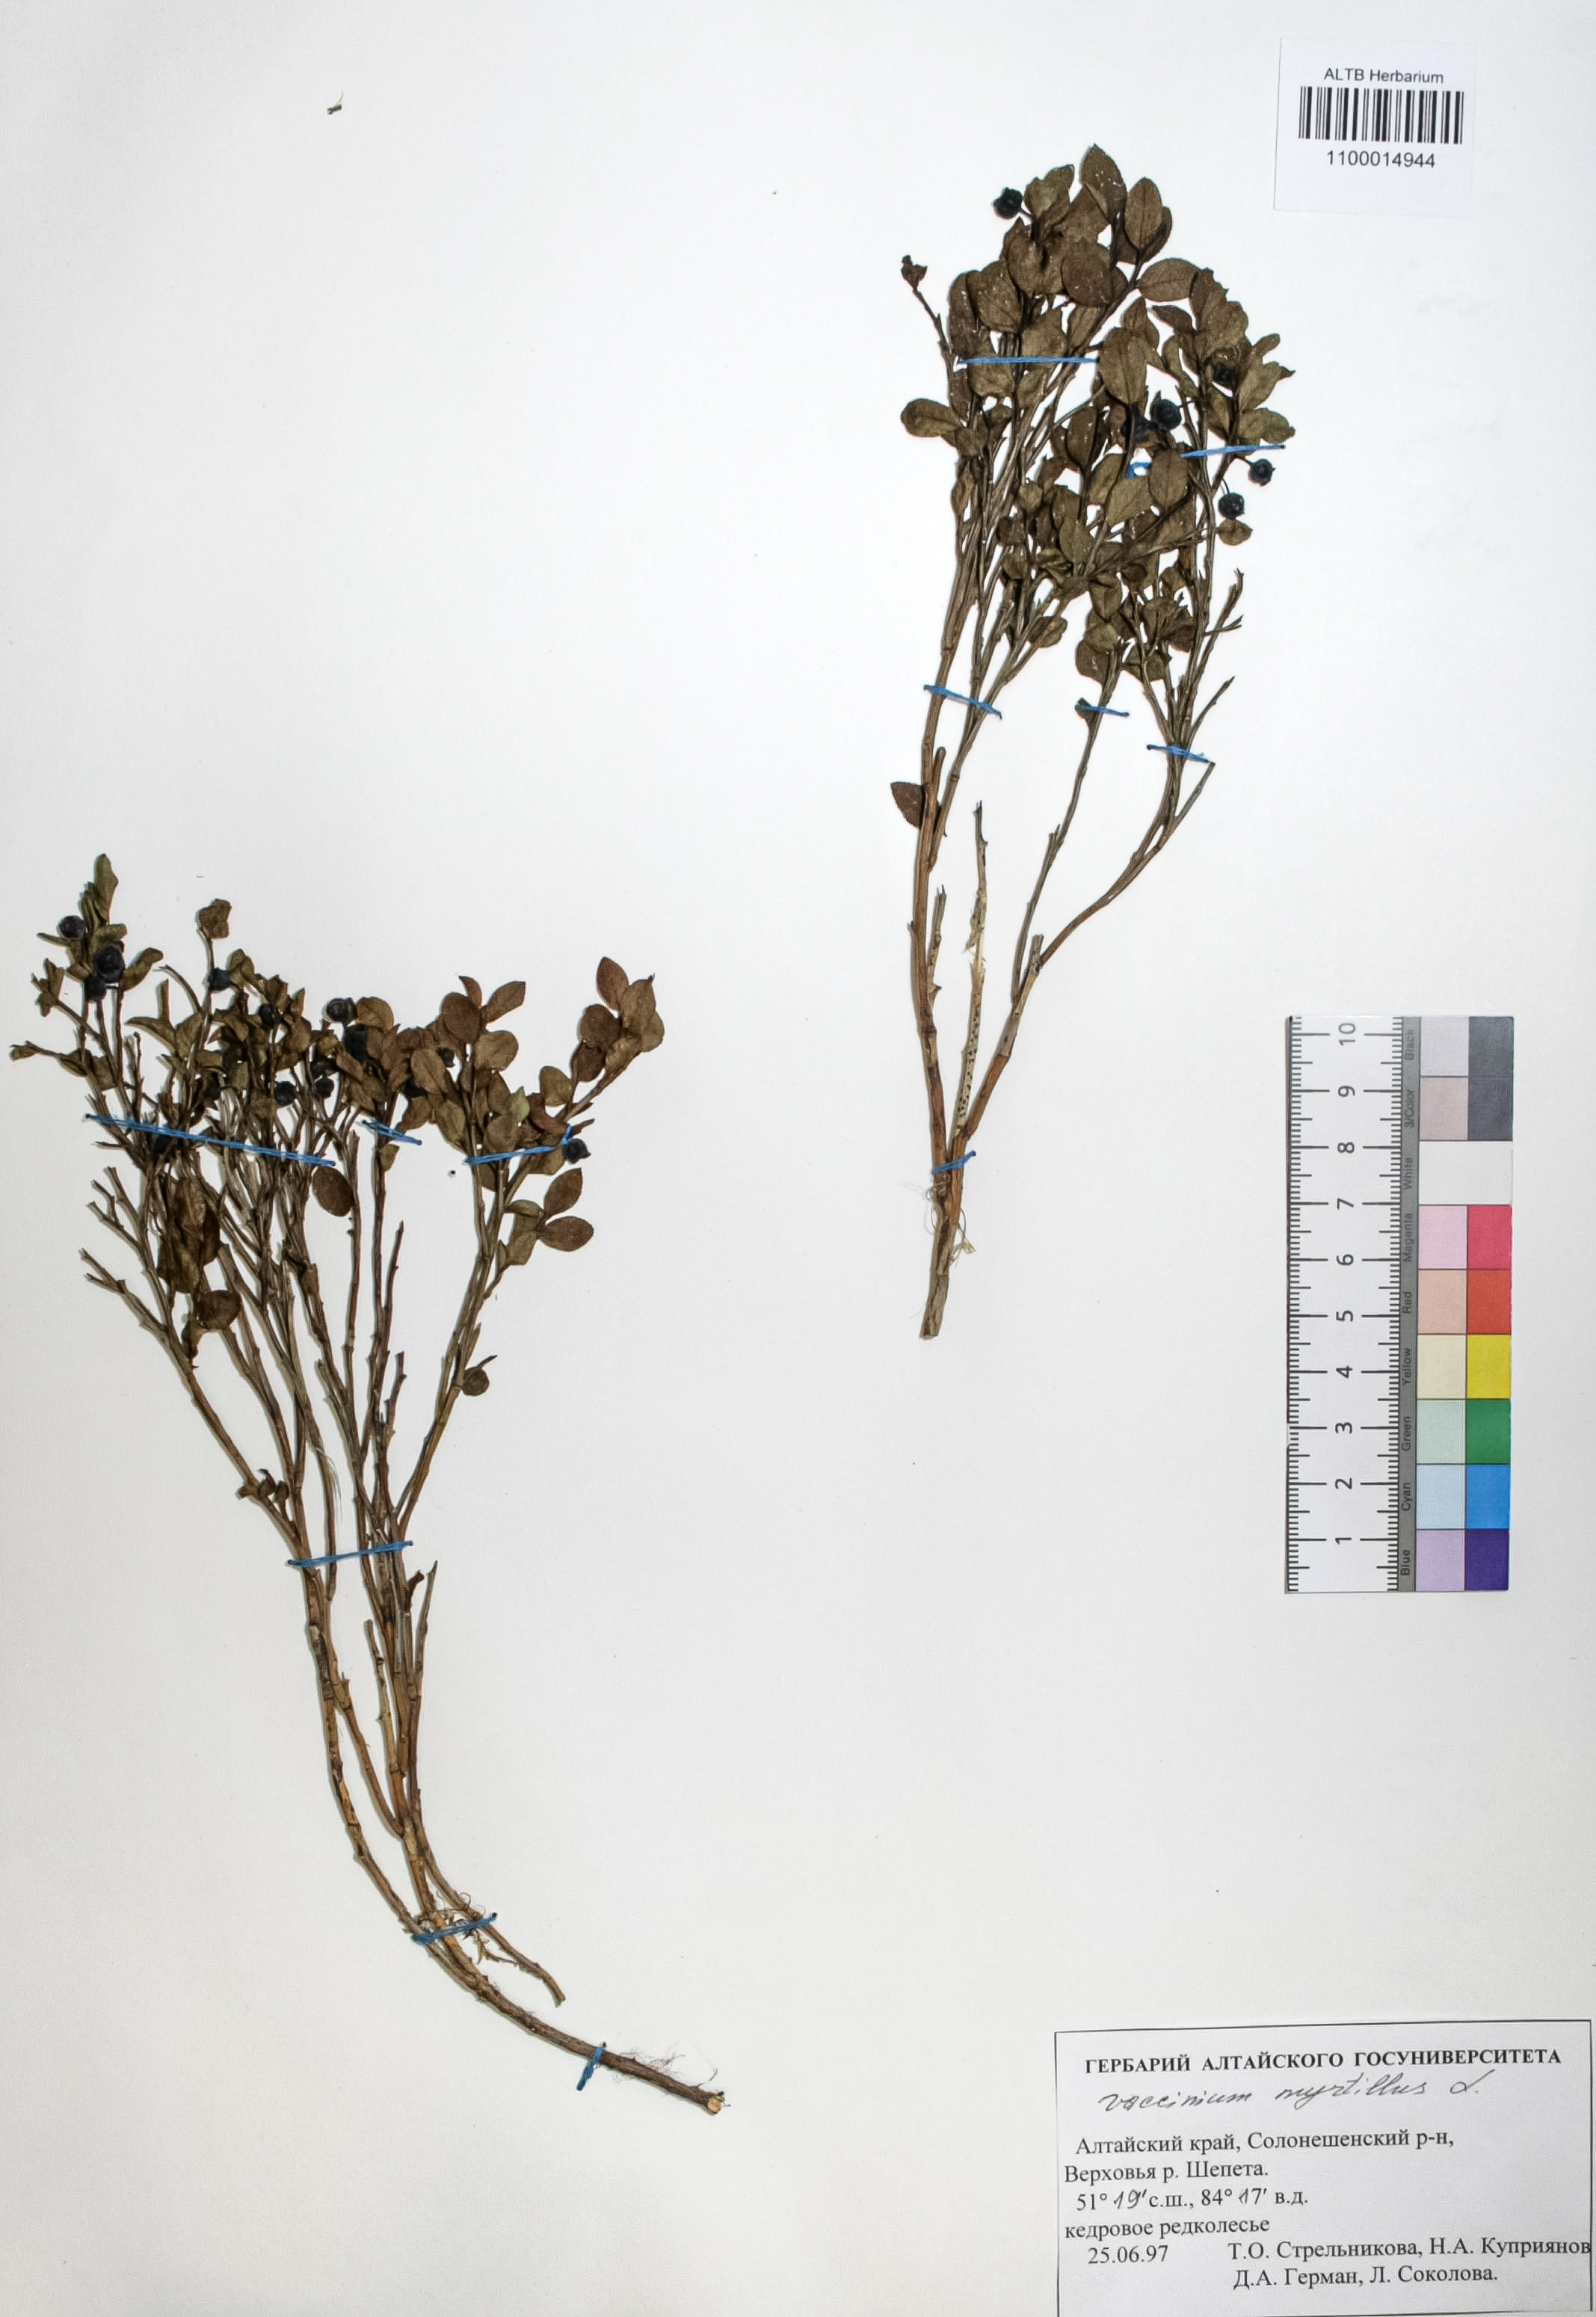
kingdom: Plantae
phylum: Tracheophyta
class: Magnoliopsida
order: Ericales
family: Ericaceae
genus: Vaccinium
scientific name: Vaccinium myrtillus
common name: Bilberry
